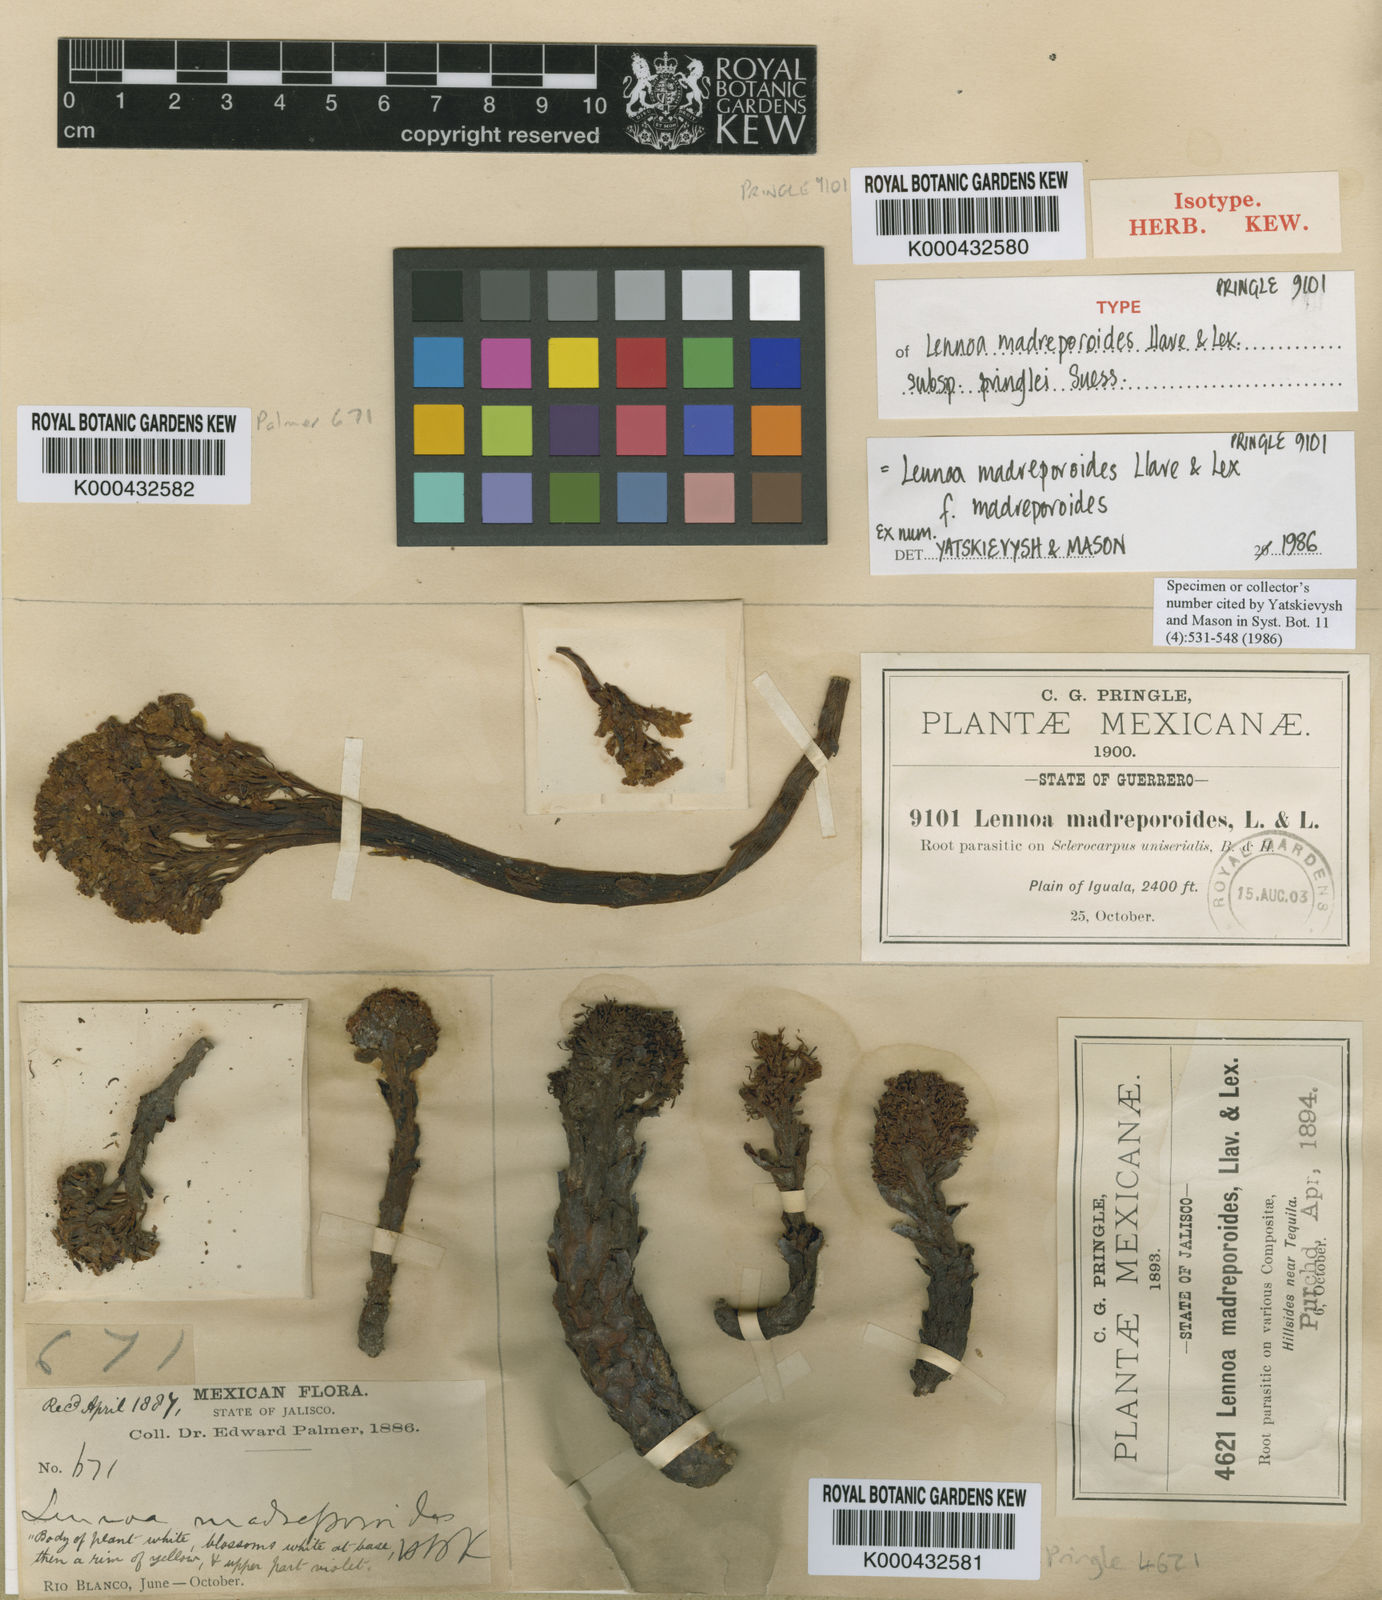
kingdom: Plantae
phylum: Tracheophyta
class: Magnoliopsida
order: Boraginales
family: Lennoaceae
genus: Lennoa
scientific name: Lennoa madreporoides
